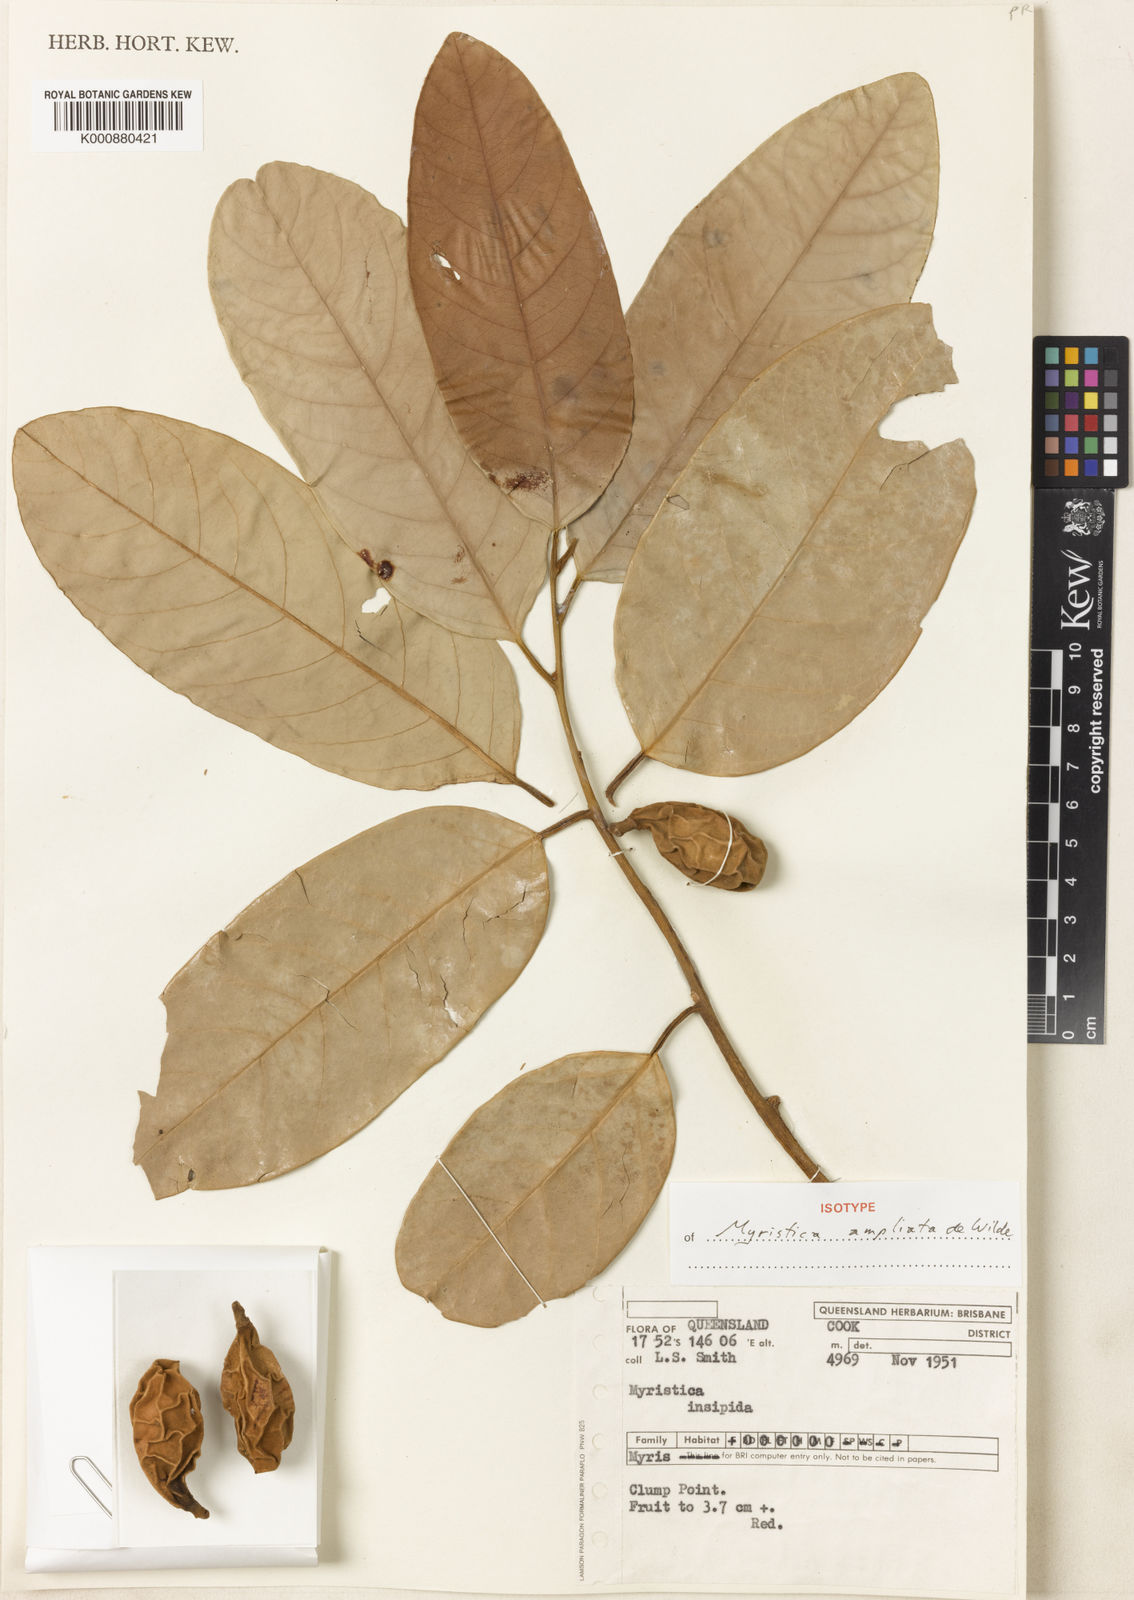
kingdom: Plantae
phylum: Tracheophyta
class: Magnoliopsida
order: Magnoliales
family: Myristicaceae
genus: Myristica
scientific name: Myristica insipida
